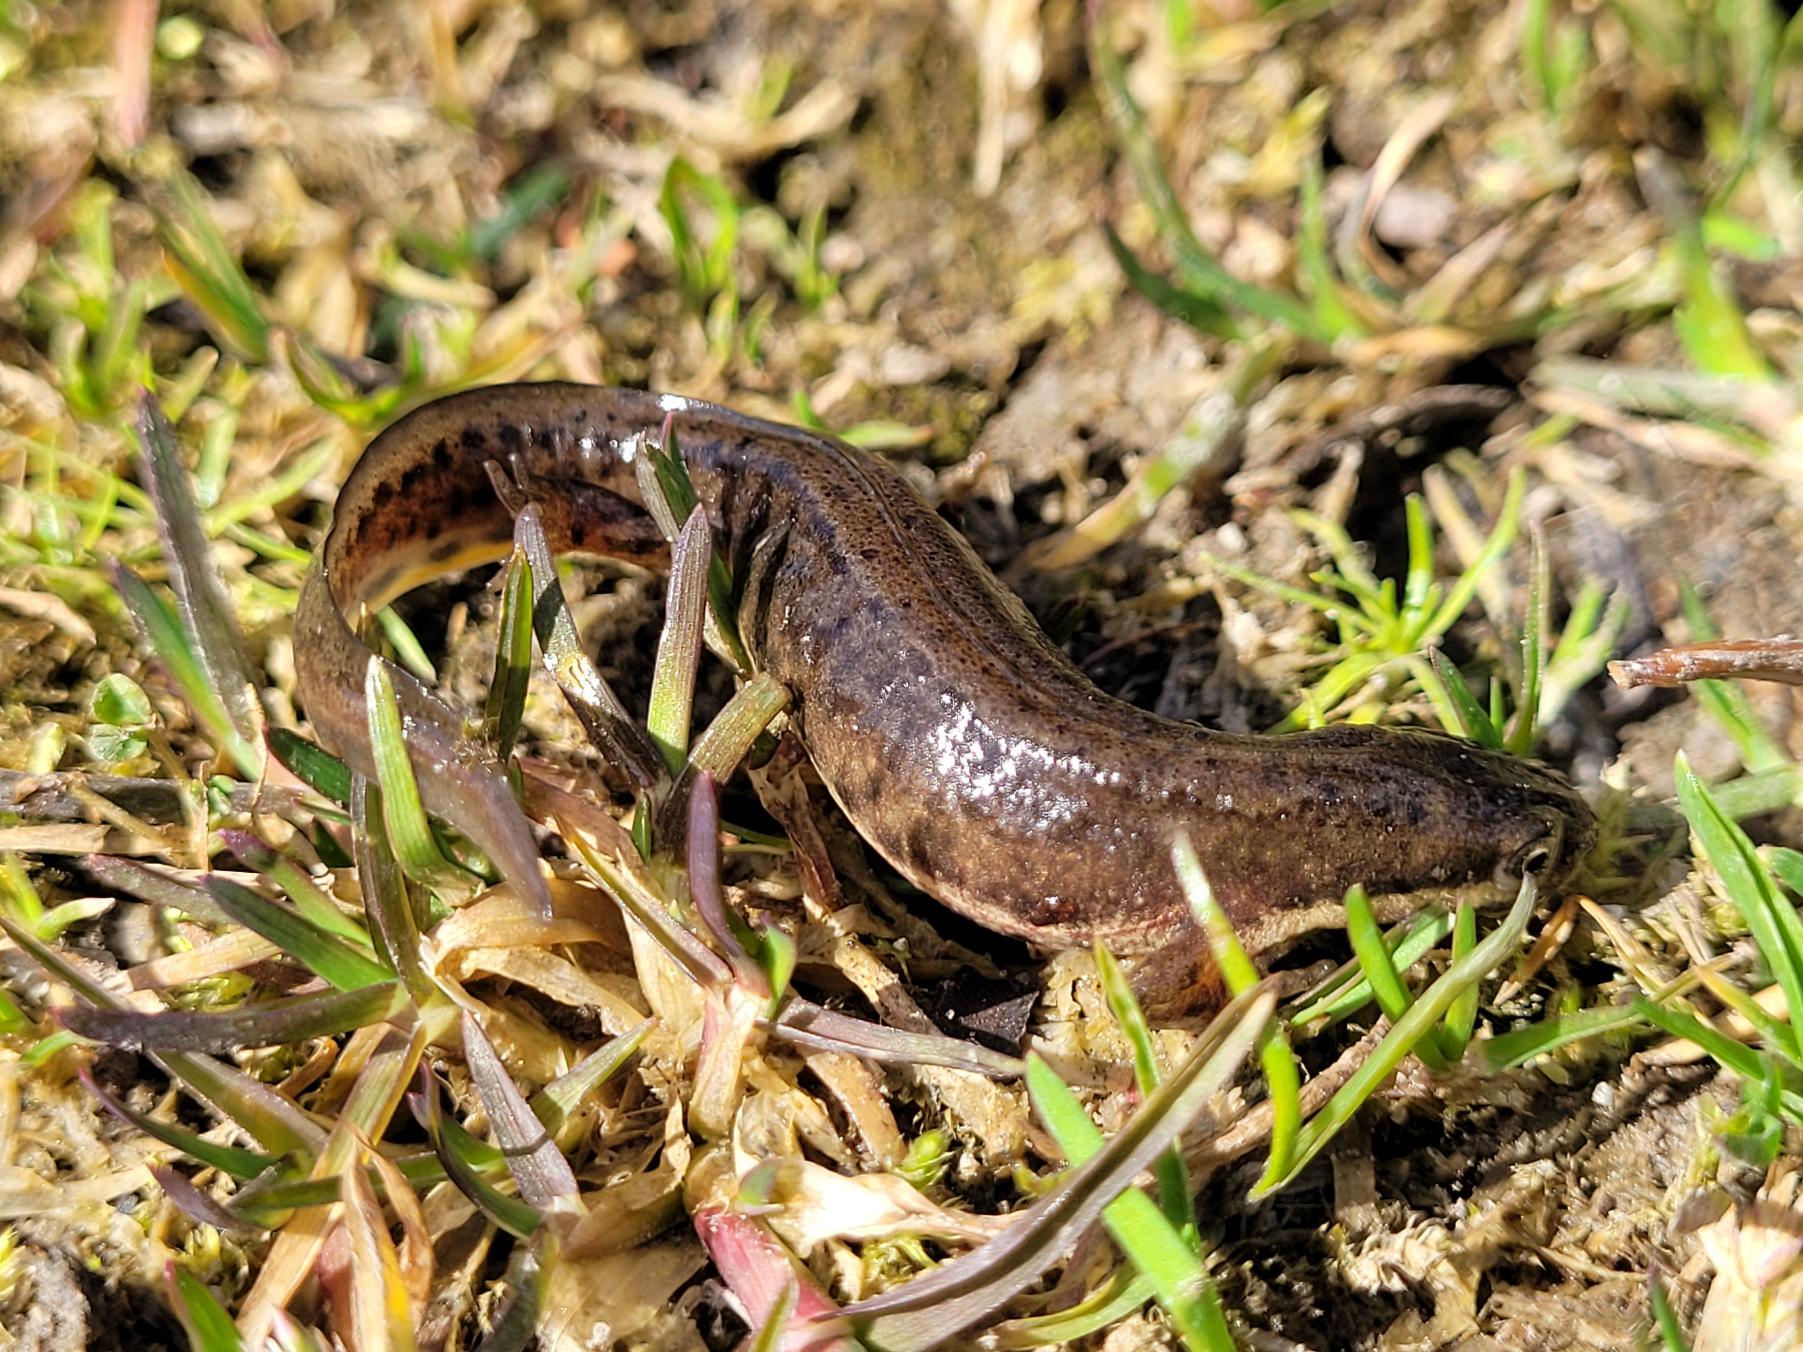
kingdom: Animalia
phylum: Chordata
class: Amphibia
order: Caudata
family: Salamandridae
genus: Lissotriton
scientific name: Lissotriton vulgaris
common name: Lille vandsalamander
